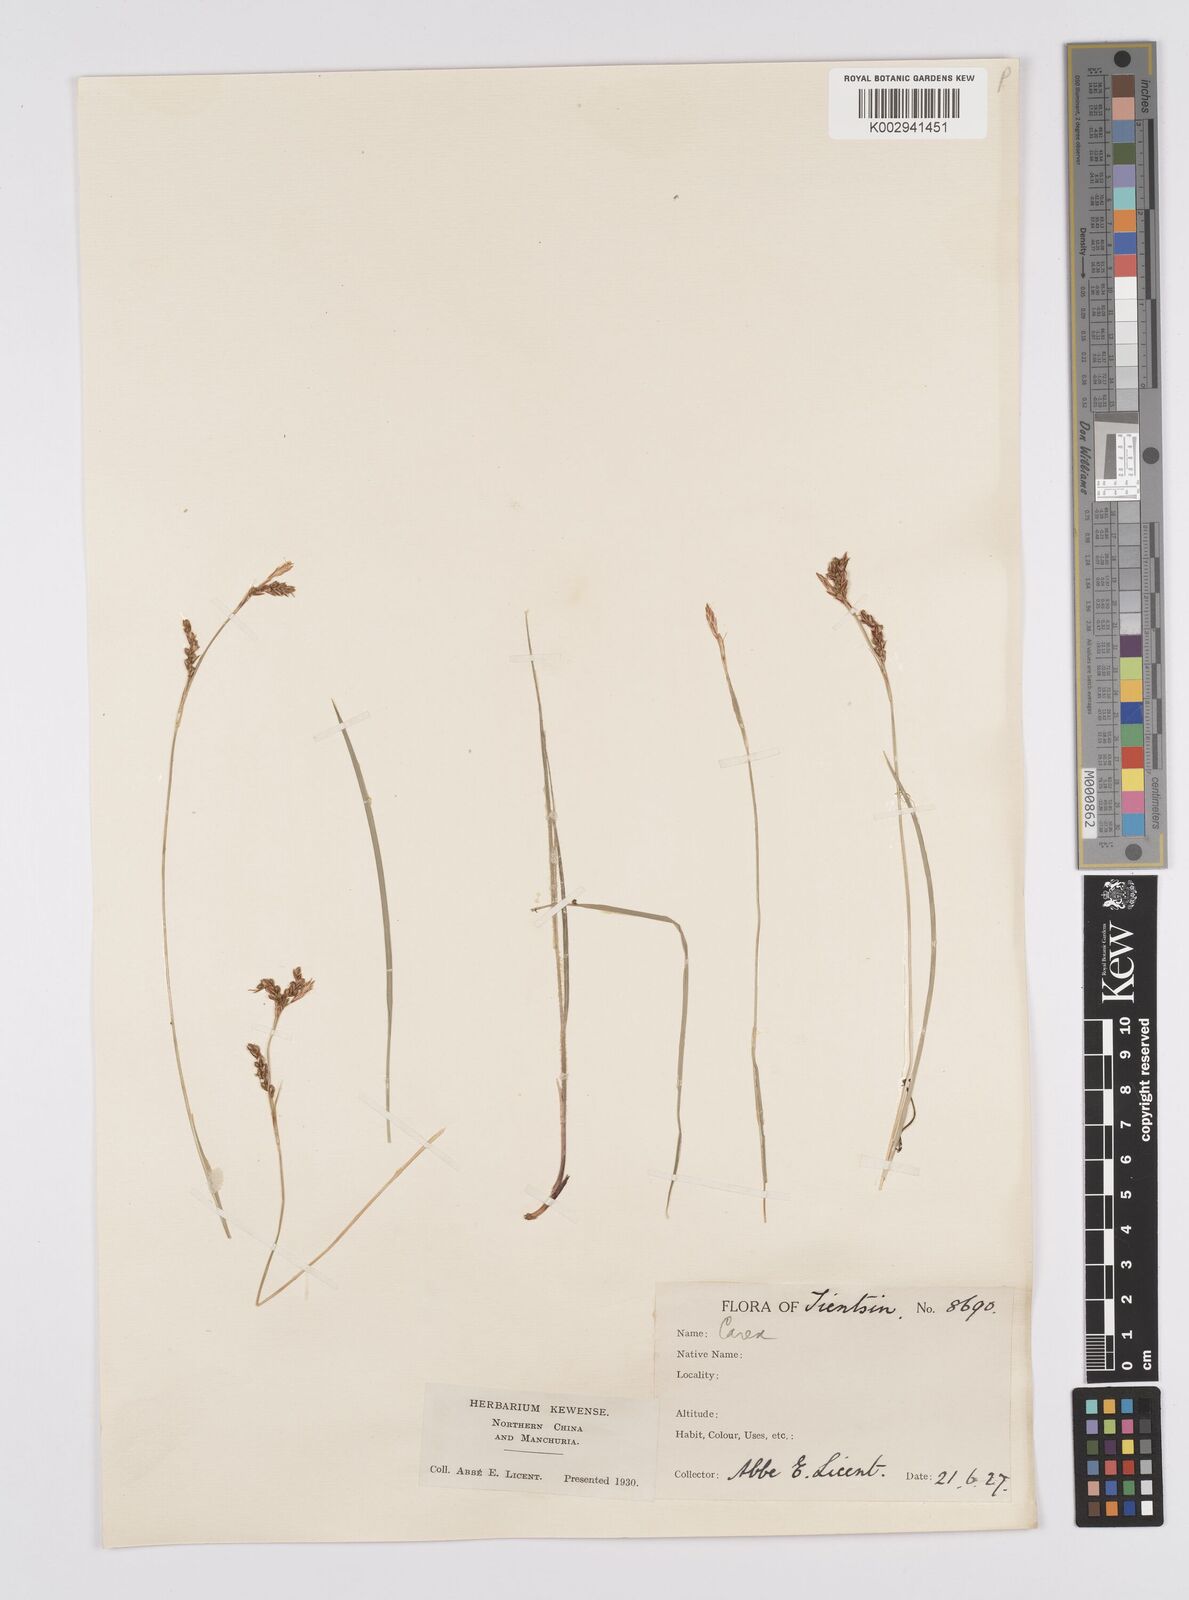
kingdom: Plantae
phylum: Tracheophyta
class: Liliopsida
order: Poales
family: Cyperaceae
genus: Carex
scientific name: Carex lanceolata
